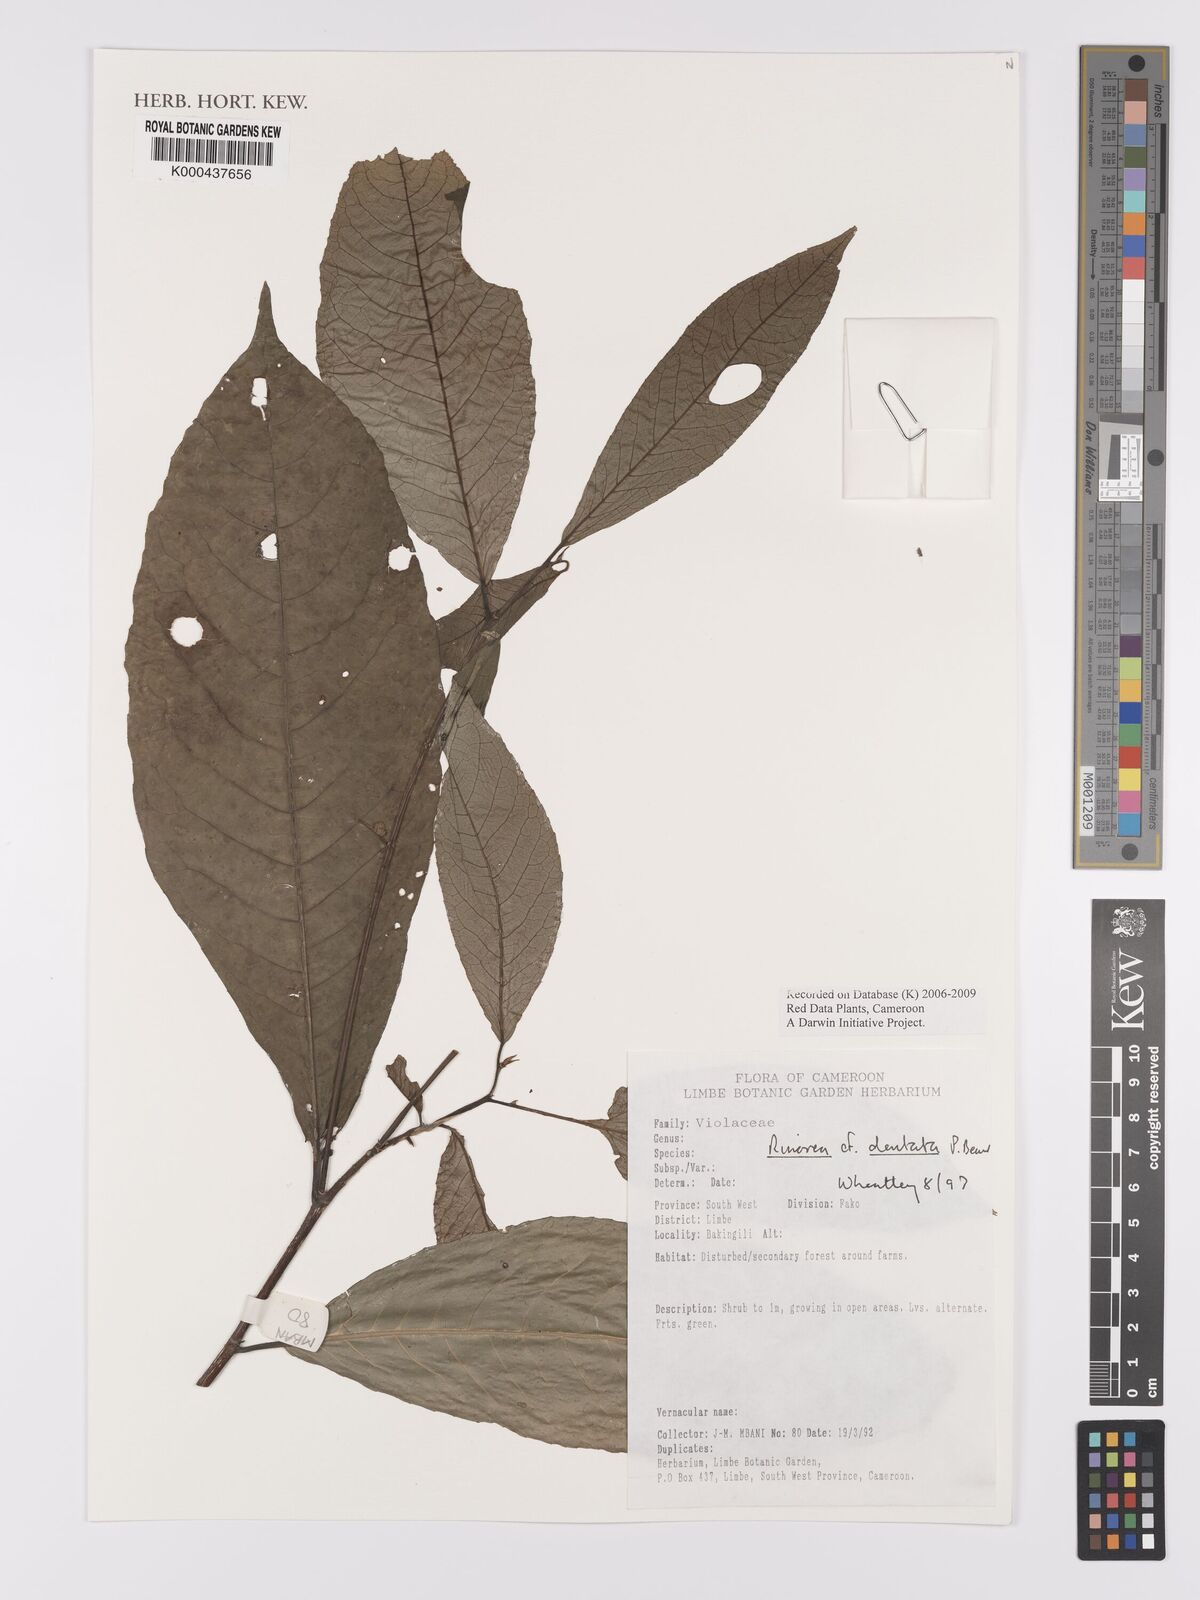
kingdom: Plantae
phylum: Tracheophyta
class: Magnoliopsida
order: Malpighiales
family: Violaceae
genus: Rinorea
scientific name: Rinorea dentata
